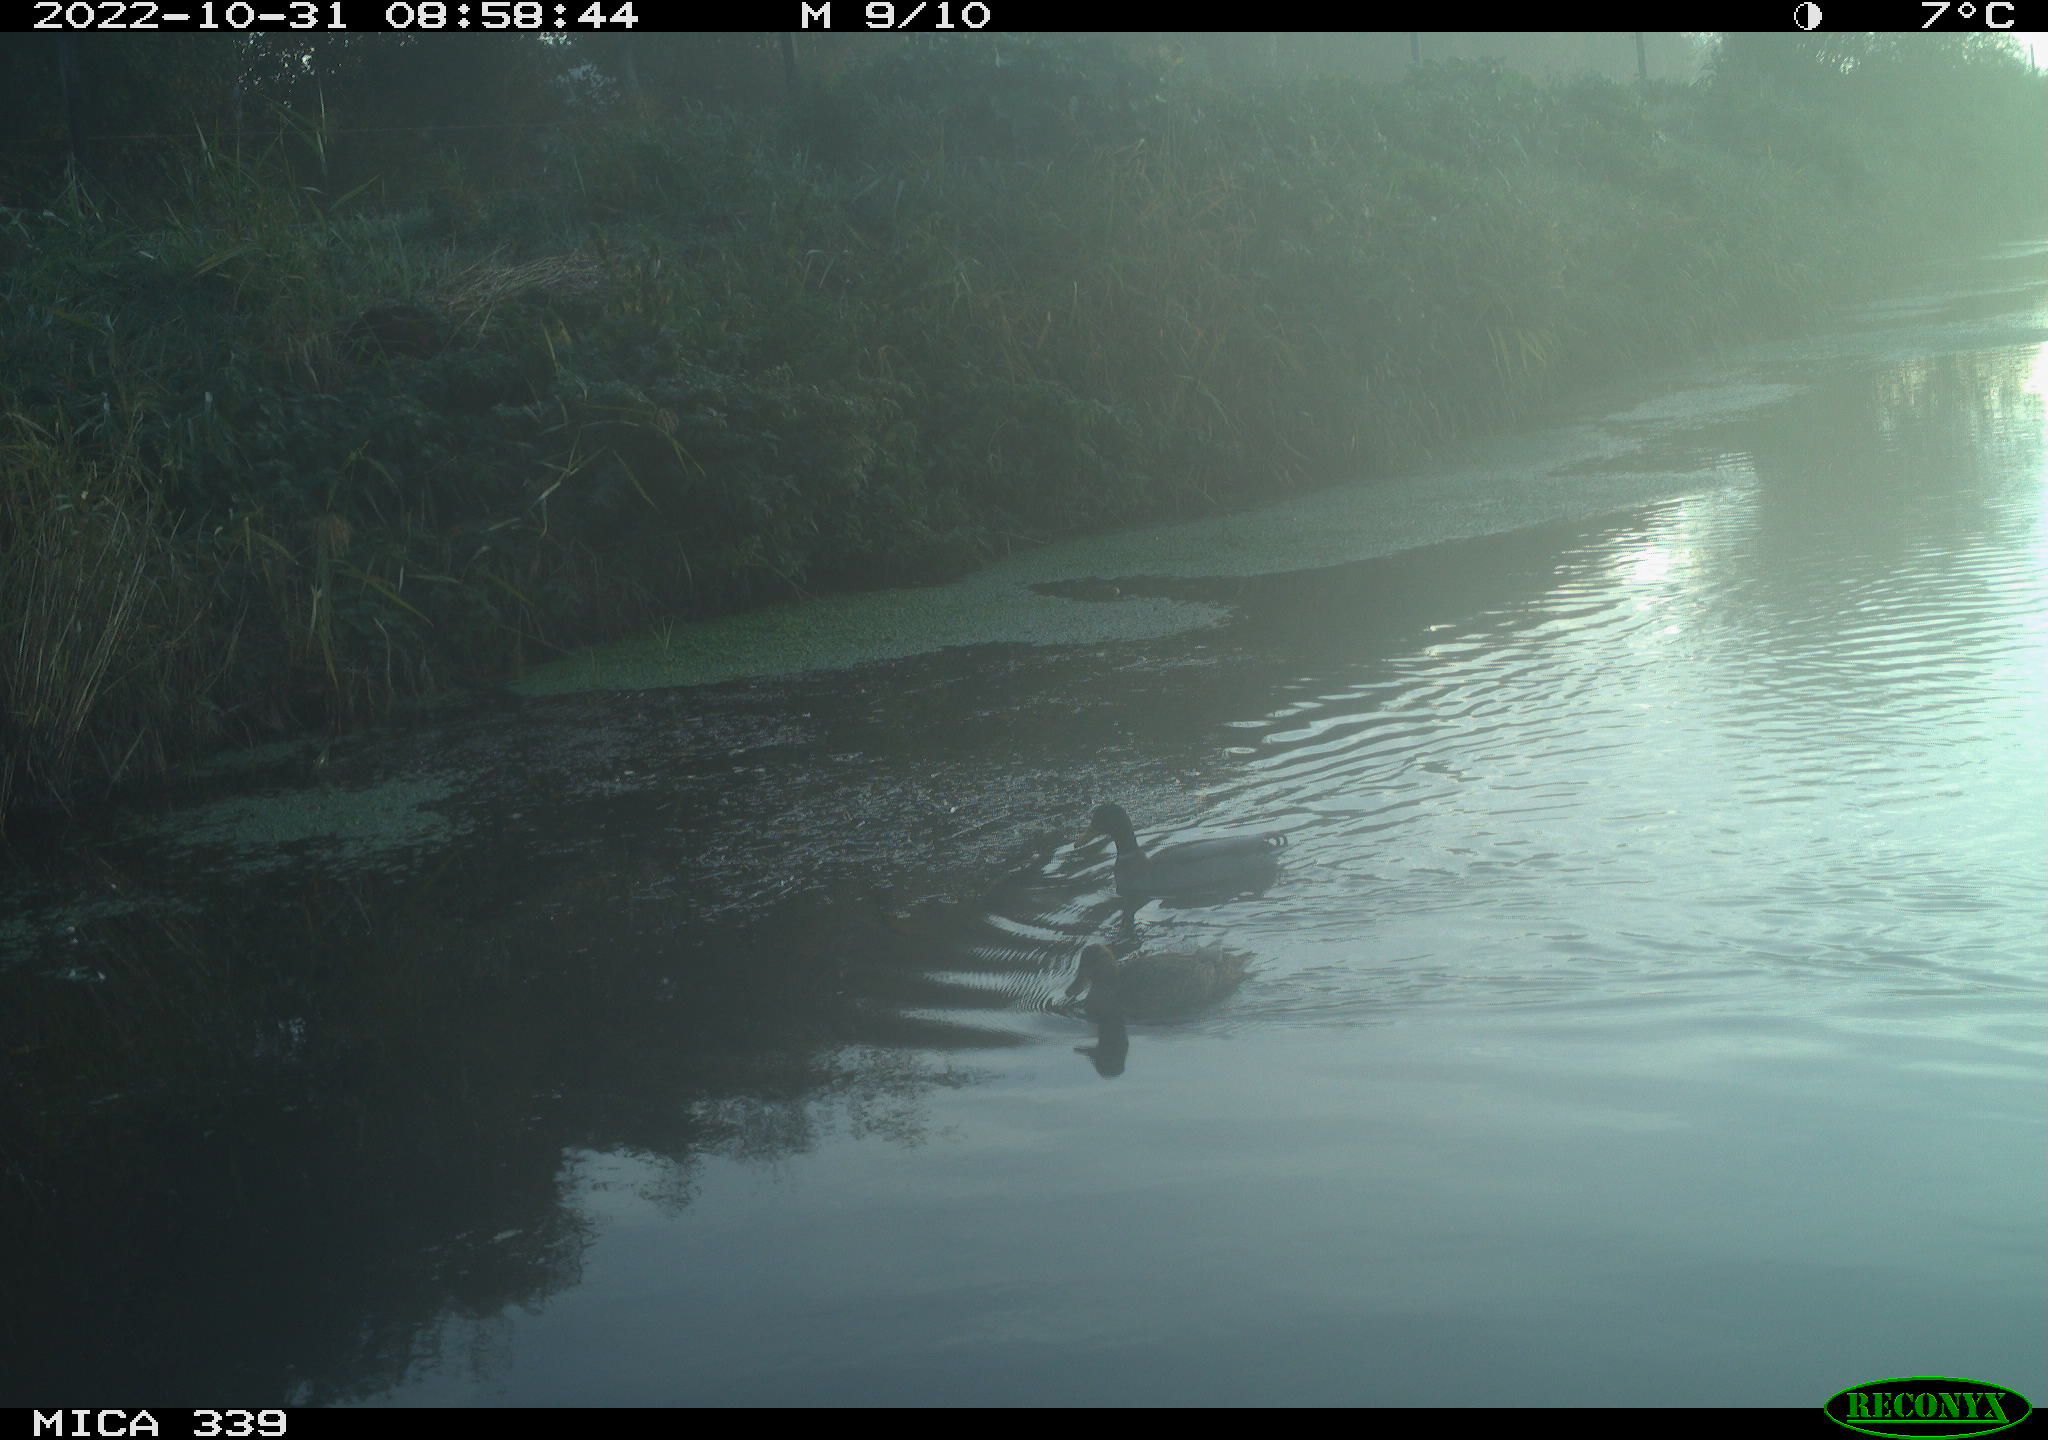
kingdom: Animalia
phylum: Chordata
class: Aves
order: Anseriformes
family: Anatidae
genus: Anas
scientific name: Anas platyrhynchos
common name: Mallard
